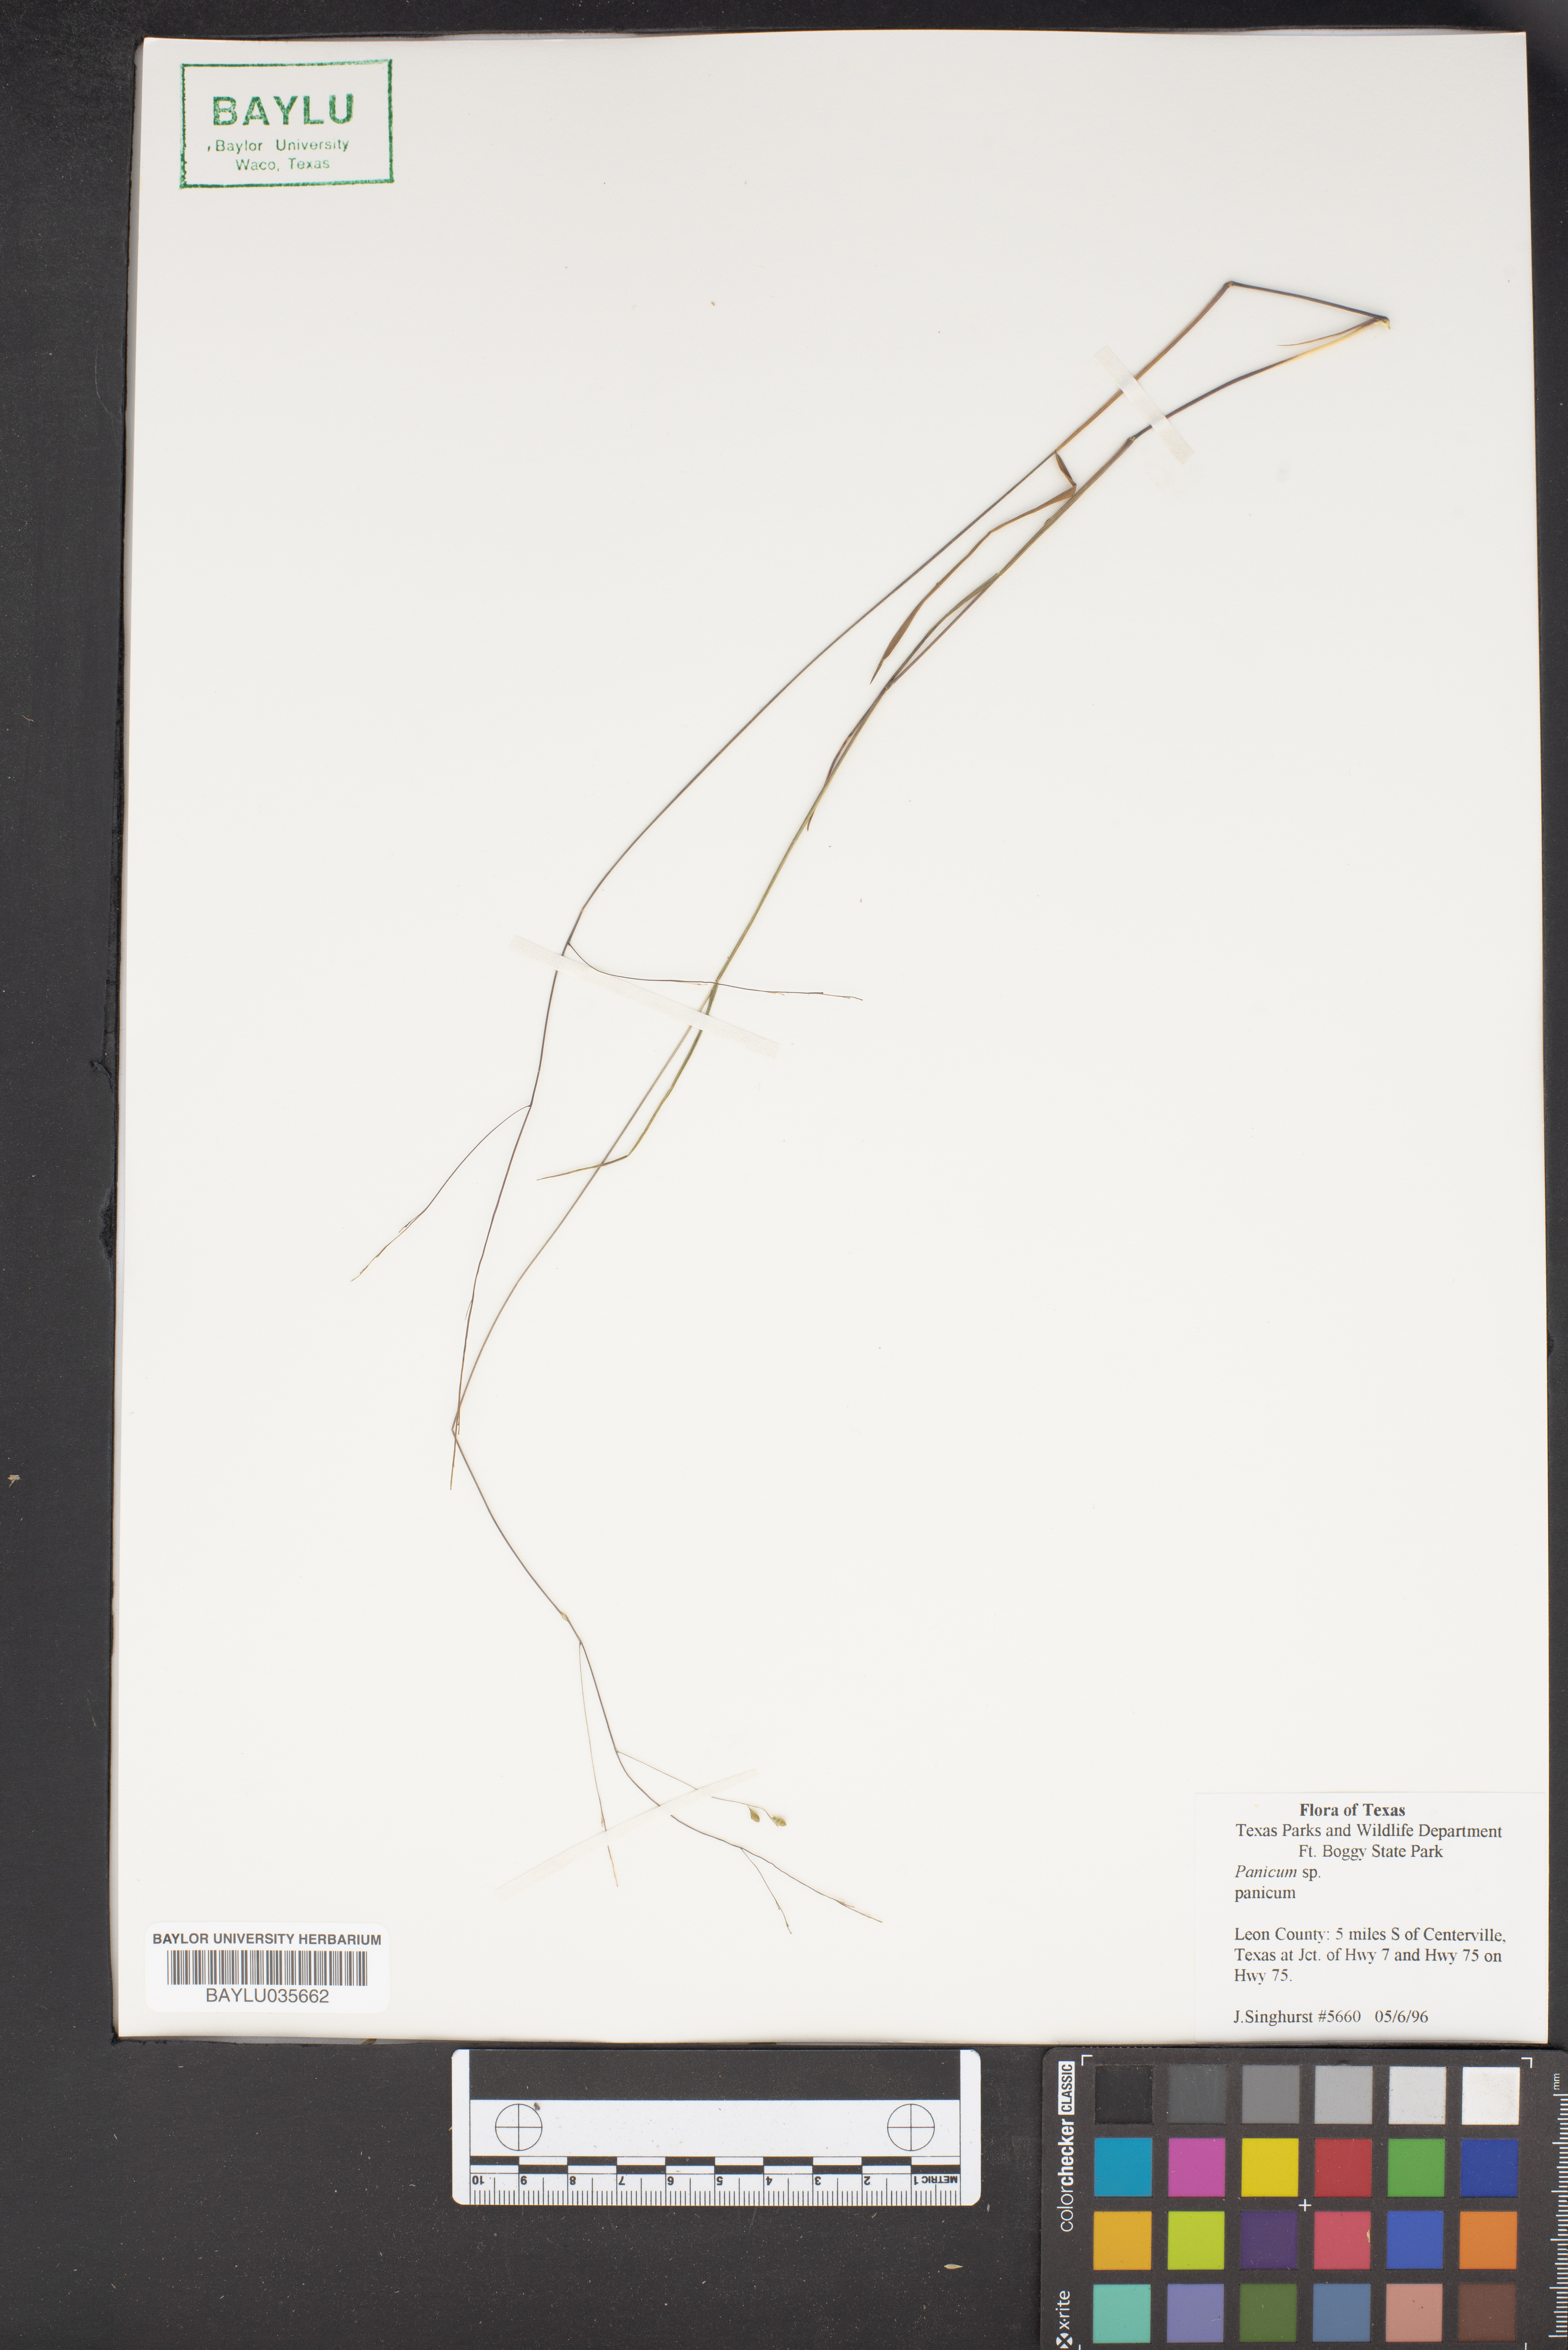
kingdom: Plantae
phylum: Tracheophyta
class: Liliopsida
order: Poales
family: Poaceae
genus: Panicum
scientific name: Panicum
